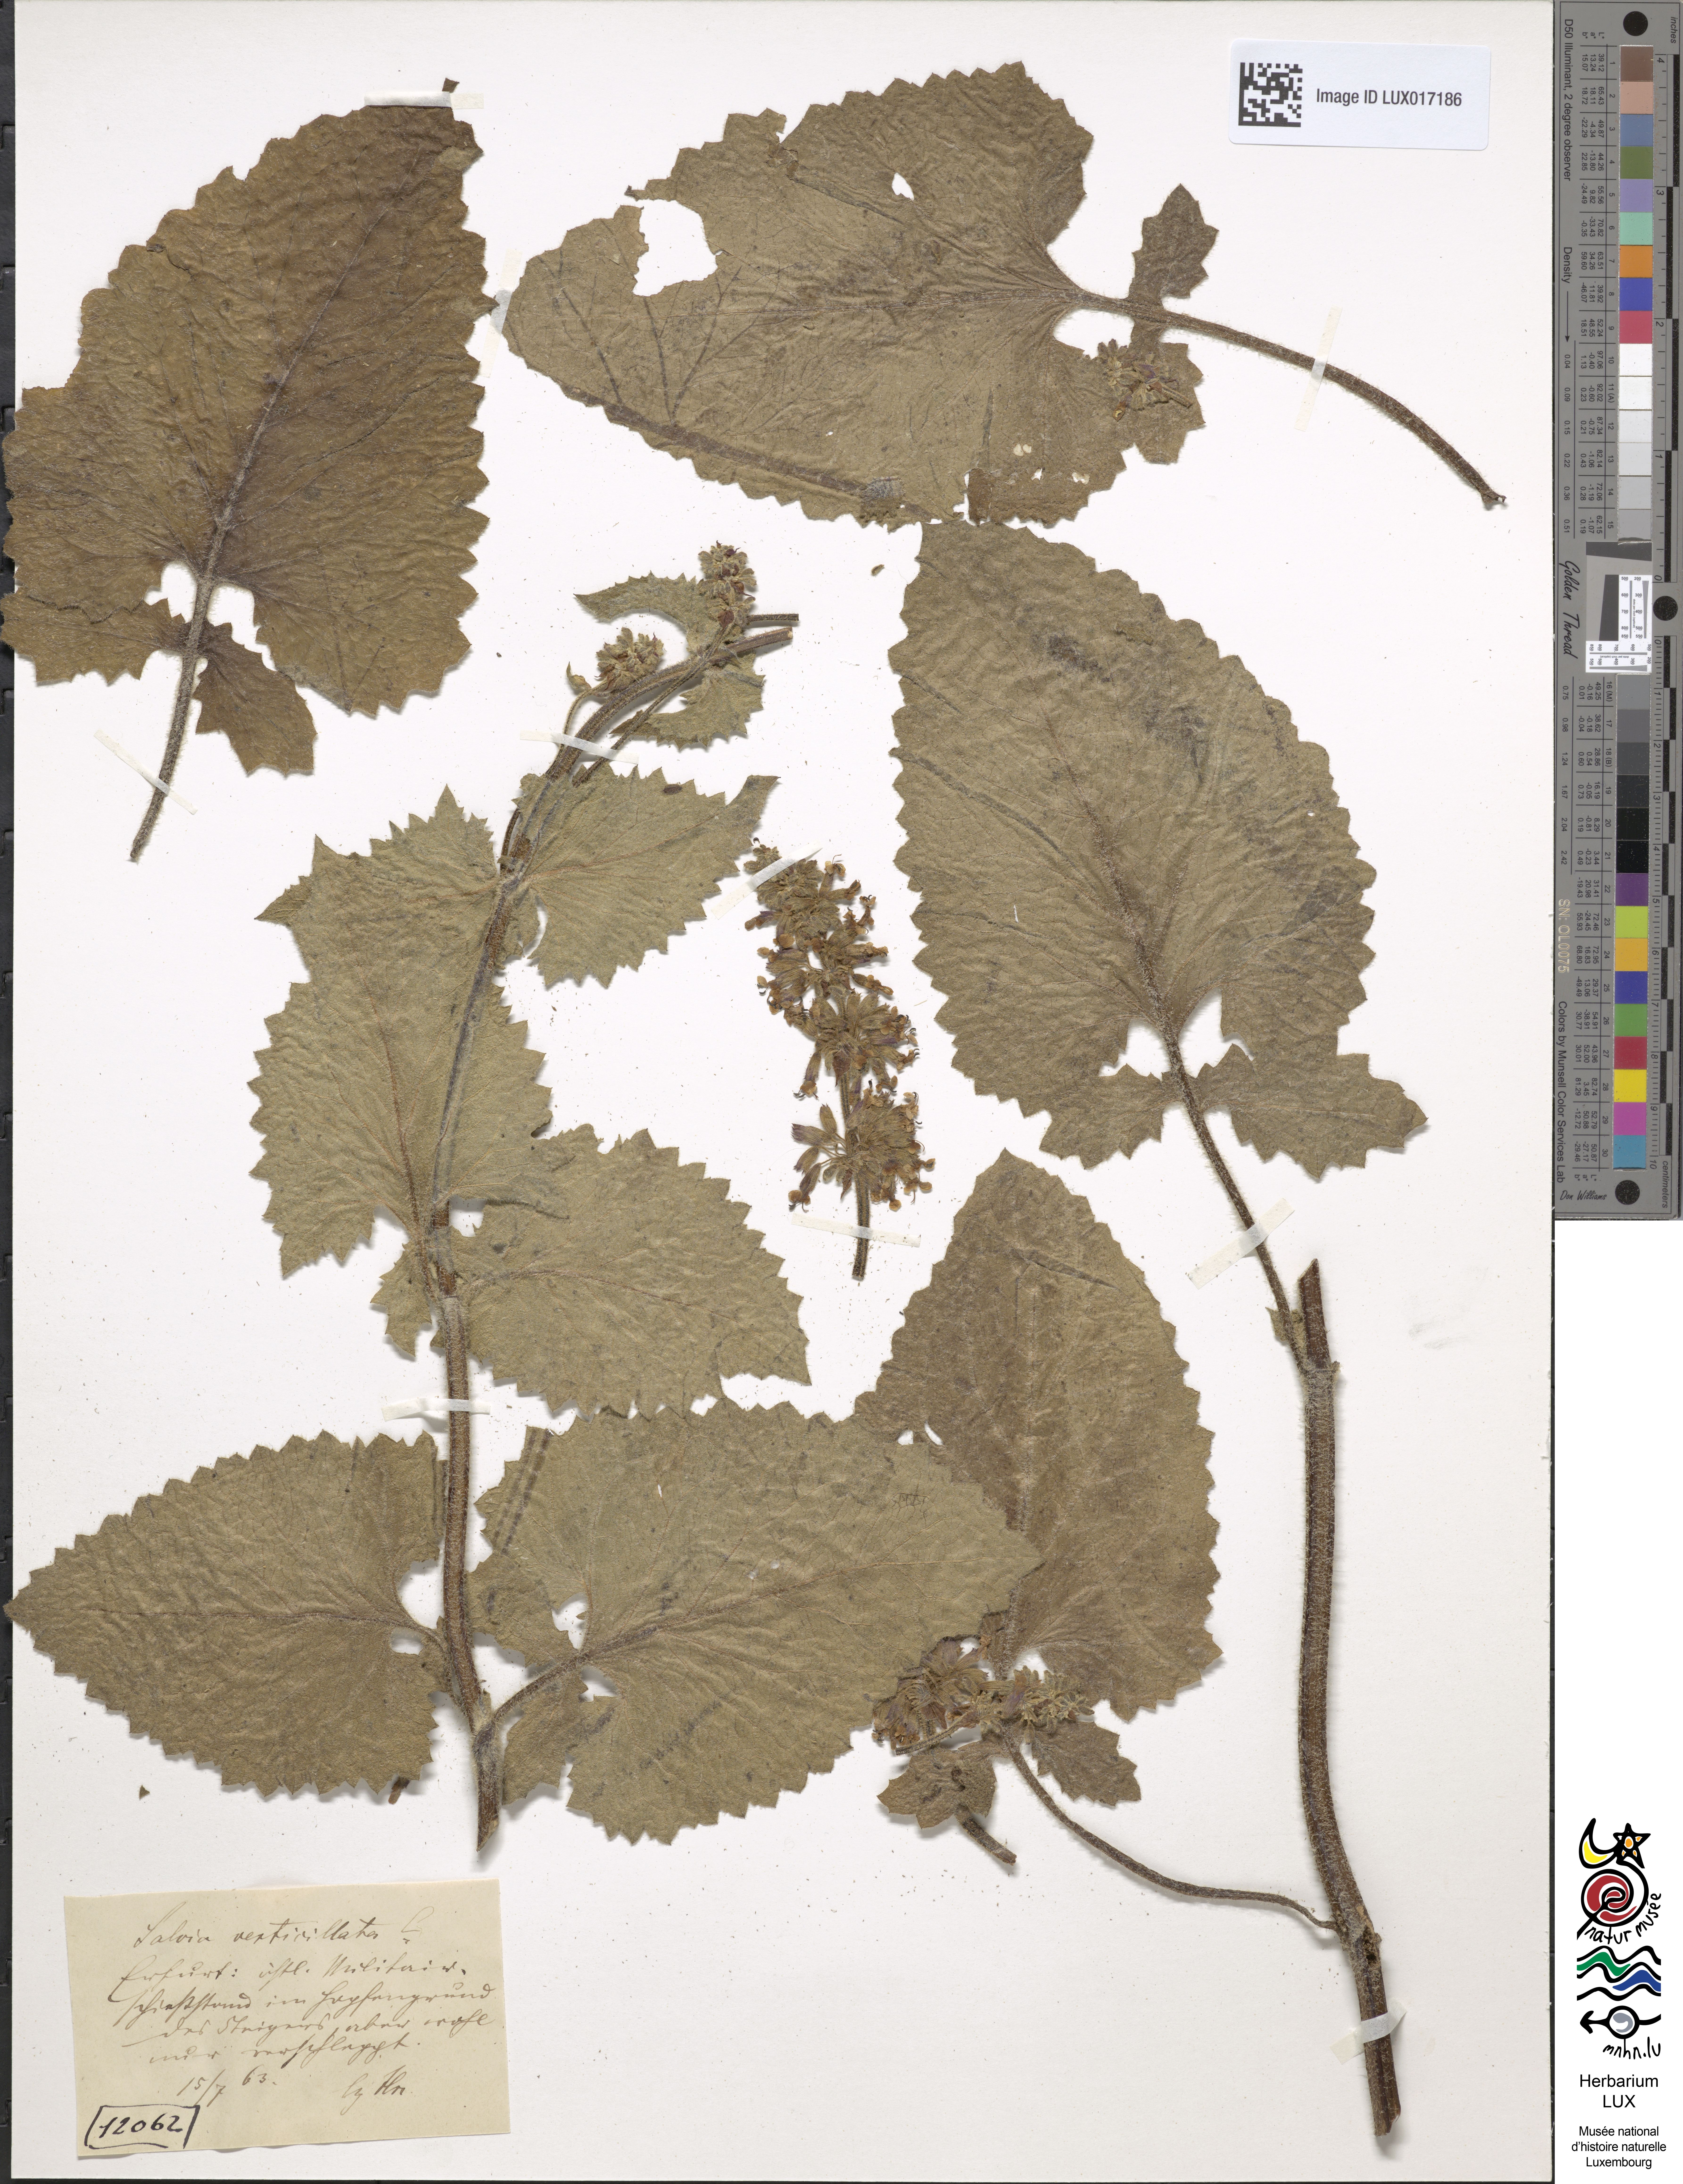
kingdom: Plantae
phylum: Tracheophyta
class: Magnoliopsida
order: Lamiales
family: Lamiaceae
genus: Salvia
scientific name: Salvia verticillata
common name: Whorled clary
